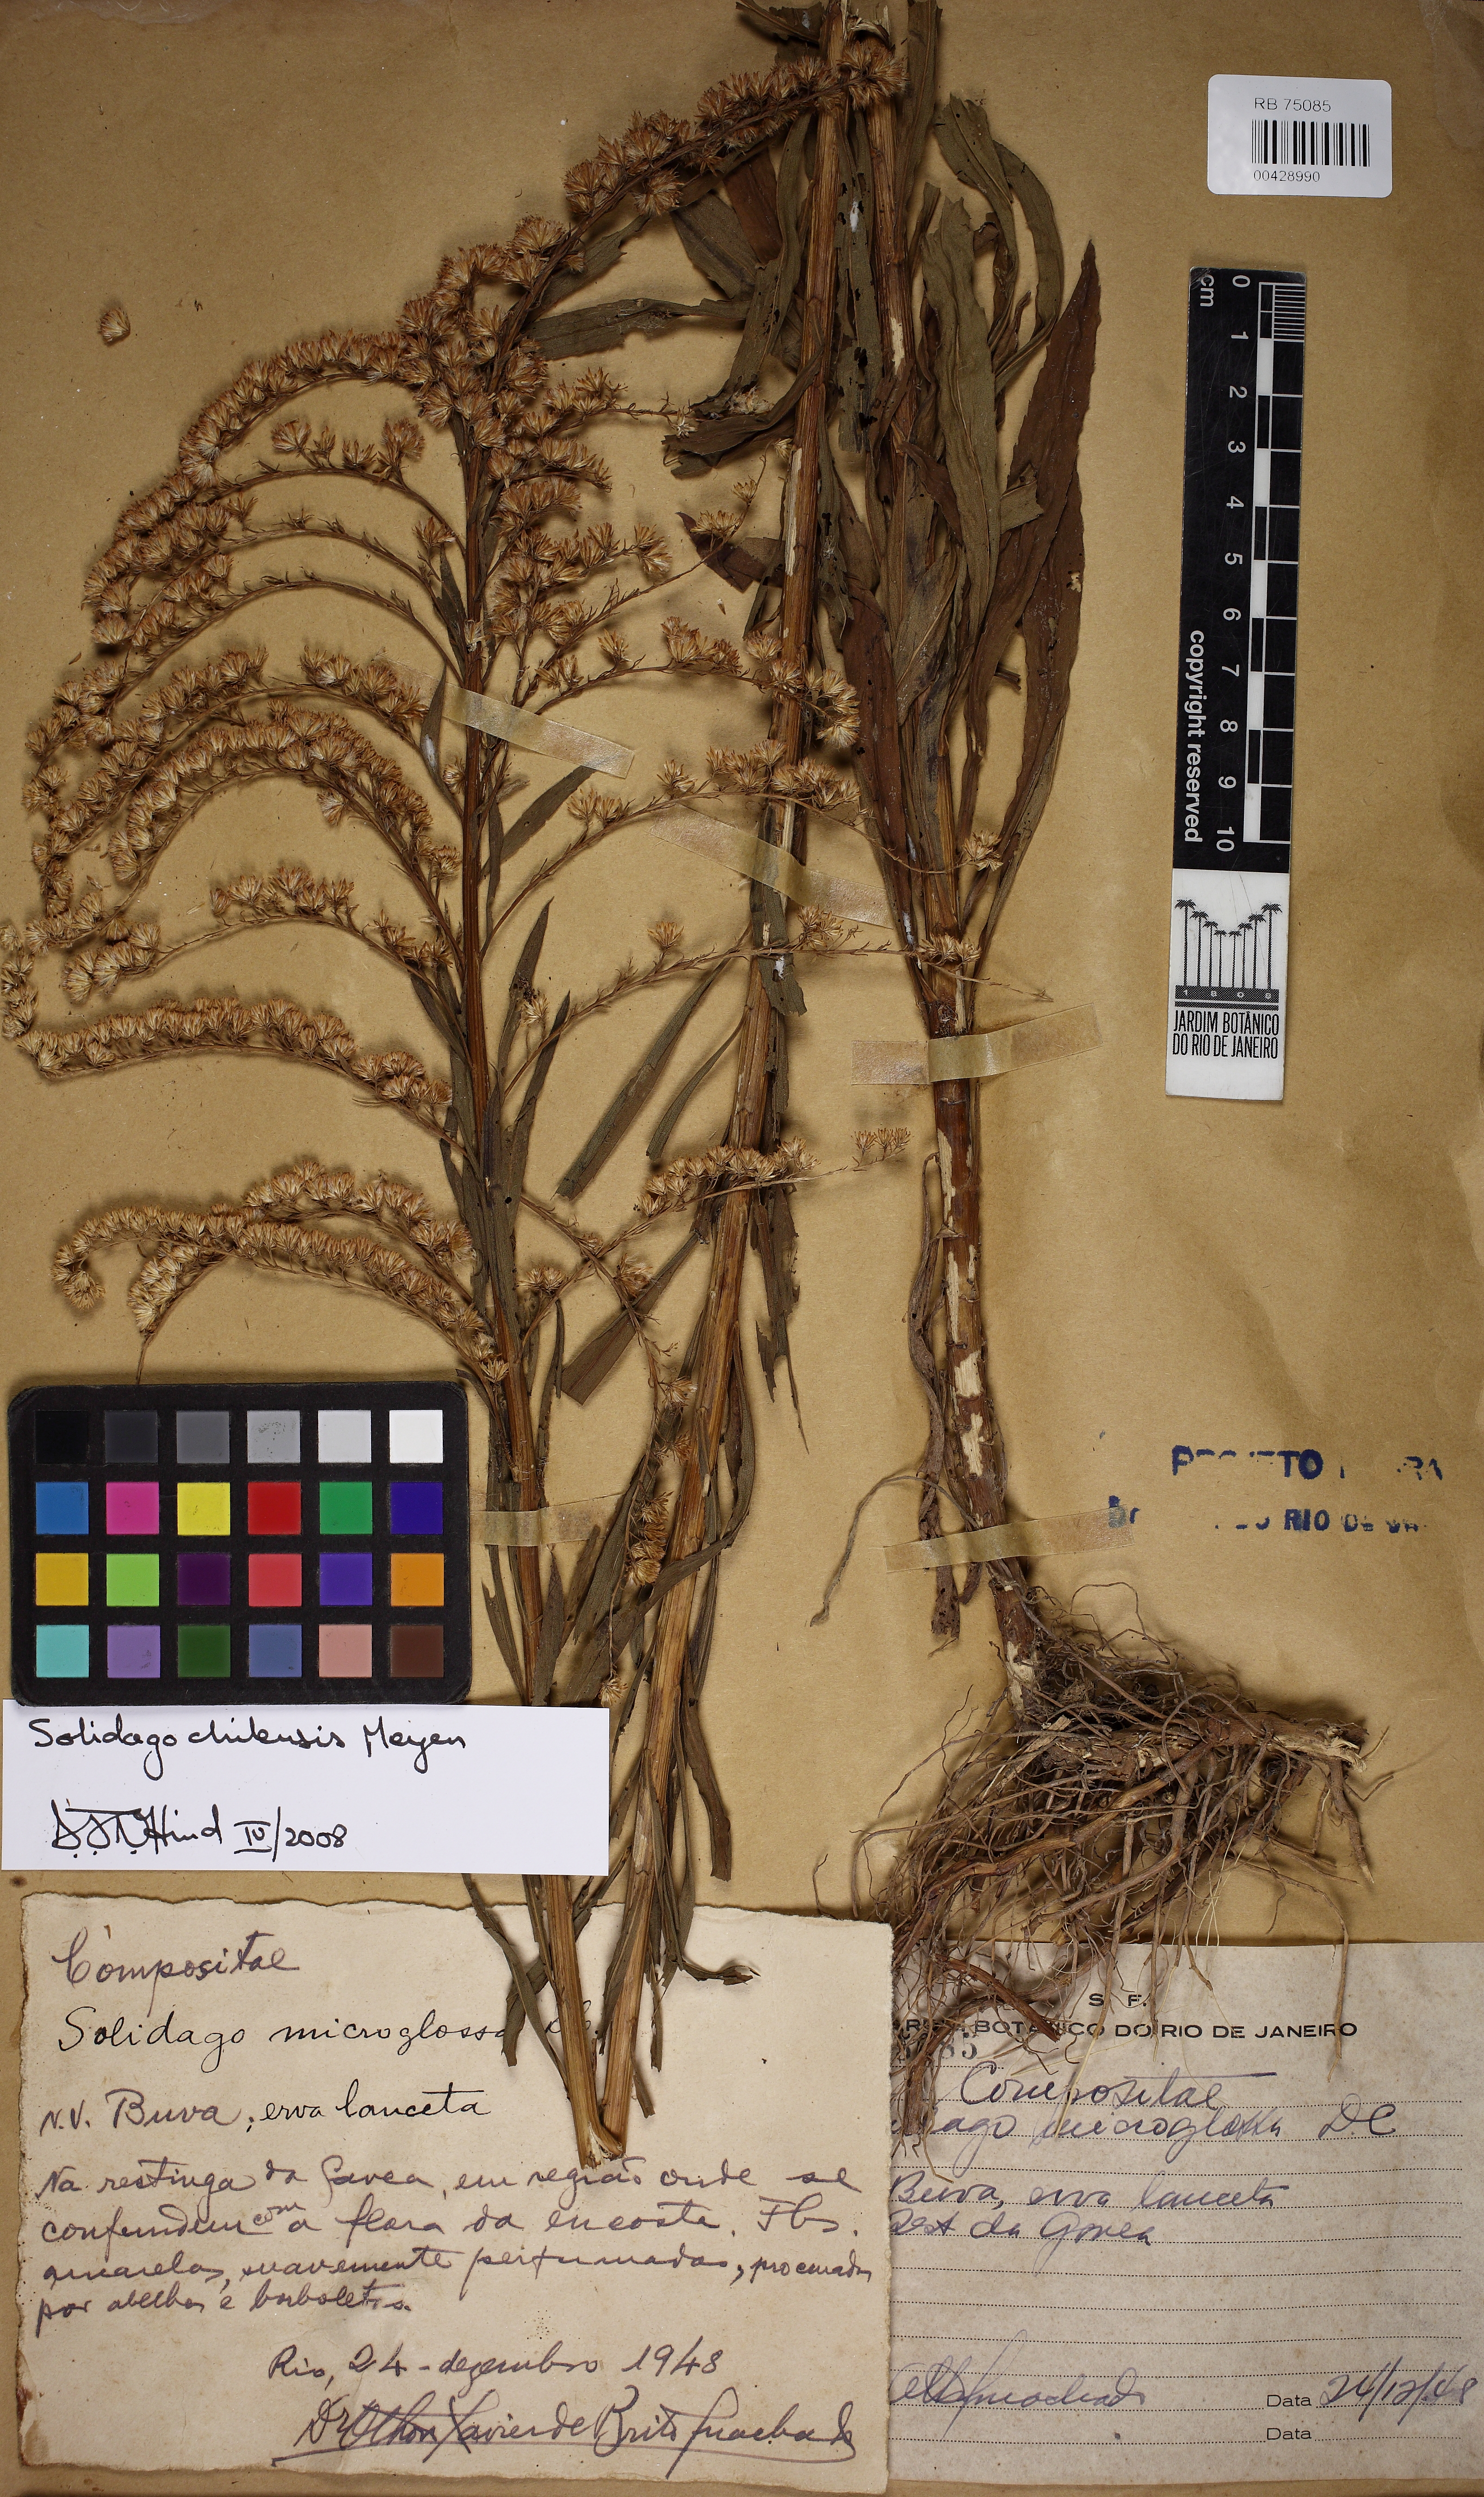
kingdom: Plantae
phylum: Tracheophyta
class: Magnoliopsida
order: Asterales
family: Asteraceae
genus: Solidago
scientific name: Solidago chilensis
